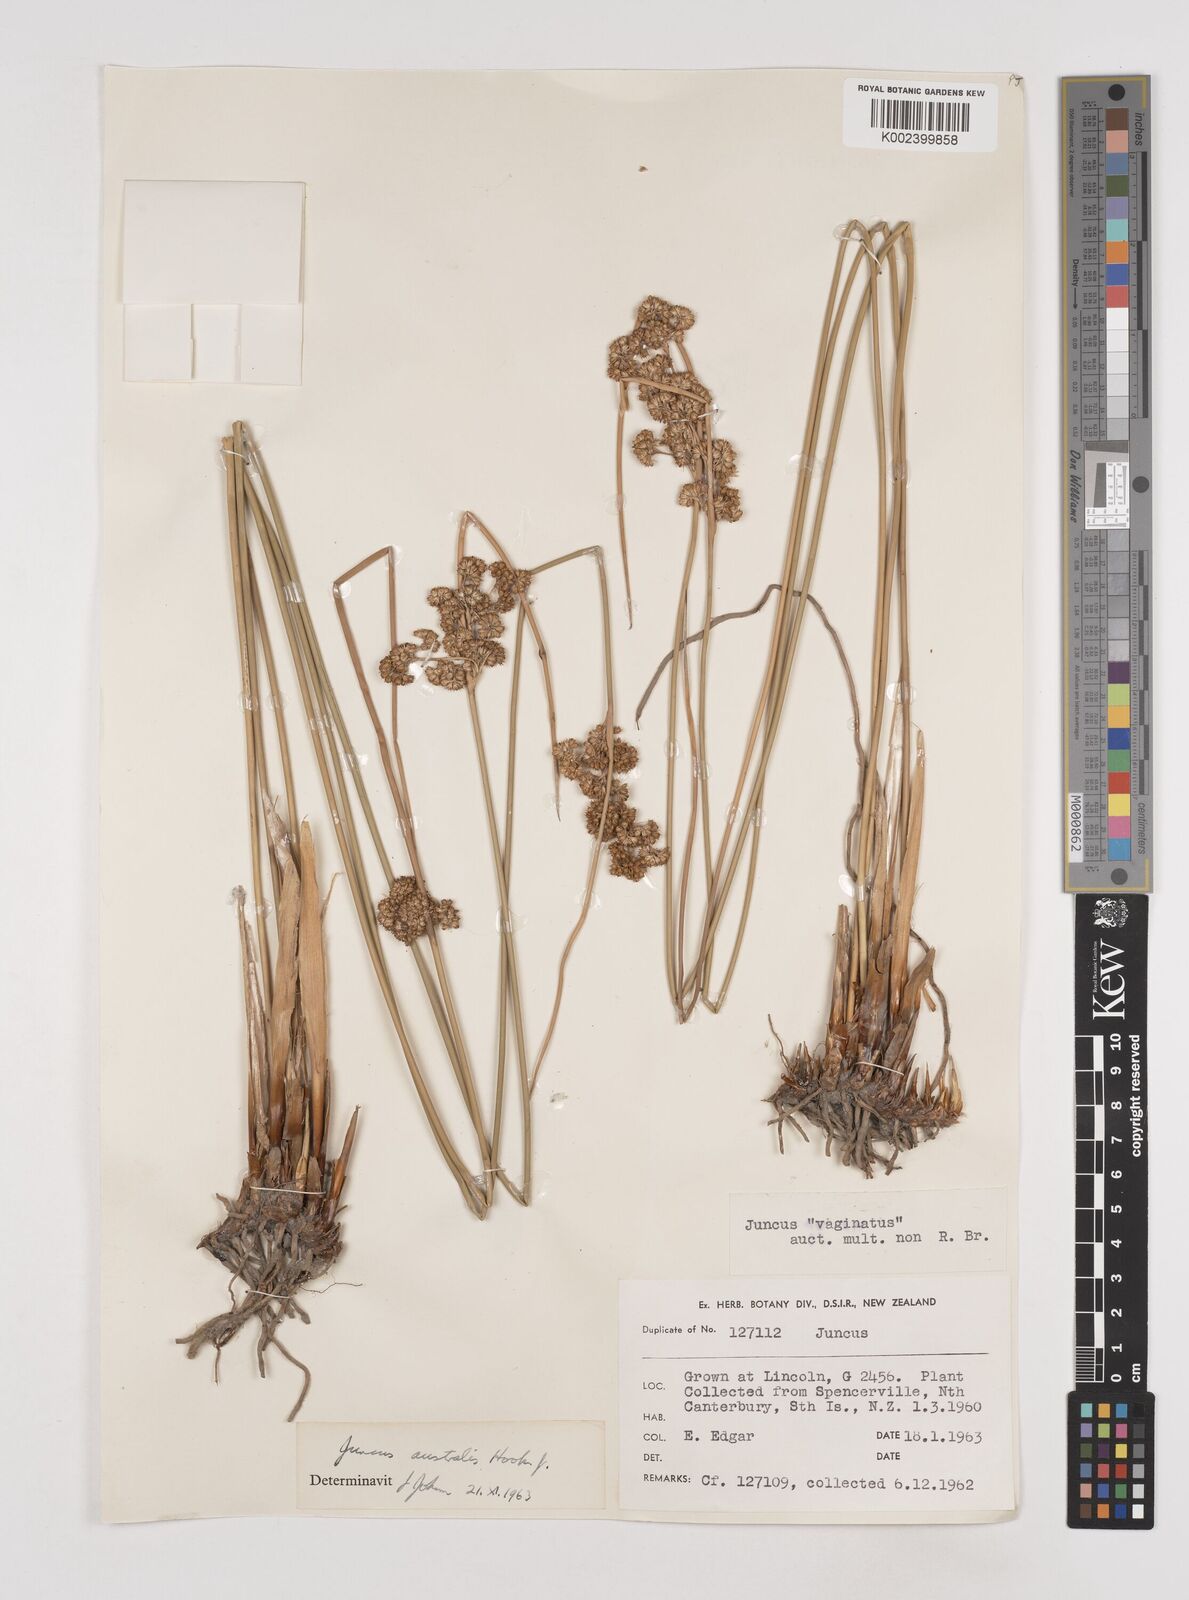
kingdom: Plantae
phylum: Tracheophyta
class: Liliopsida
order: Poales
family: Juncaceae
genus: Juncus
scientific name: Juncus australis
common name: Austral rush
